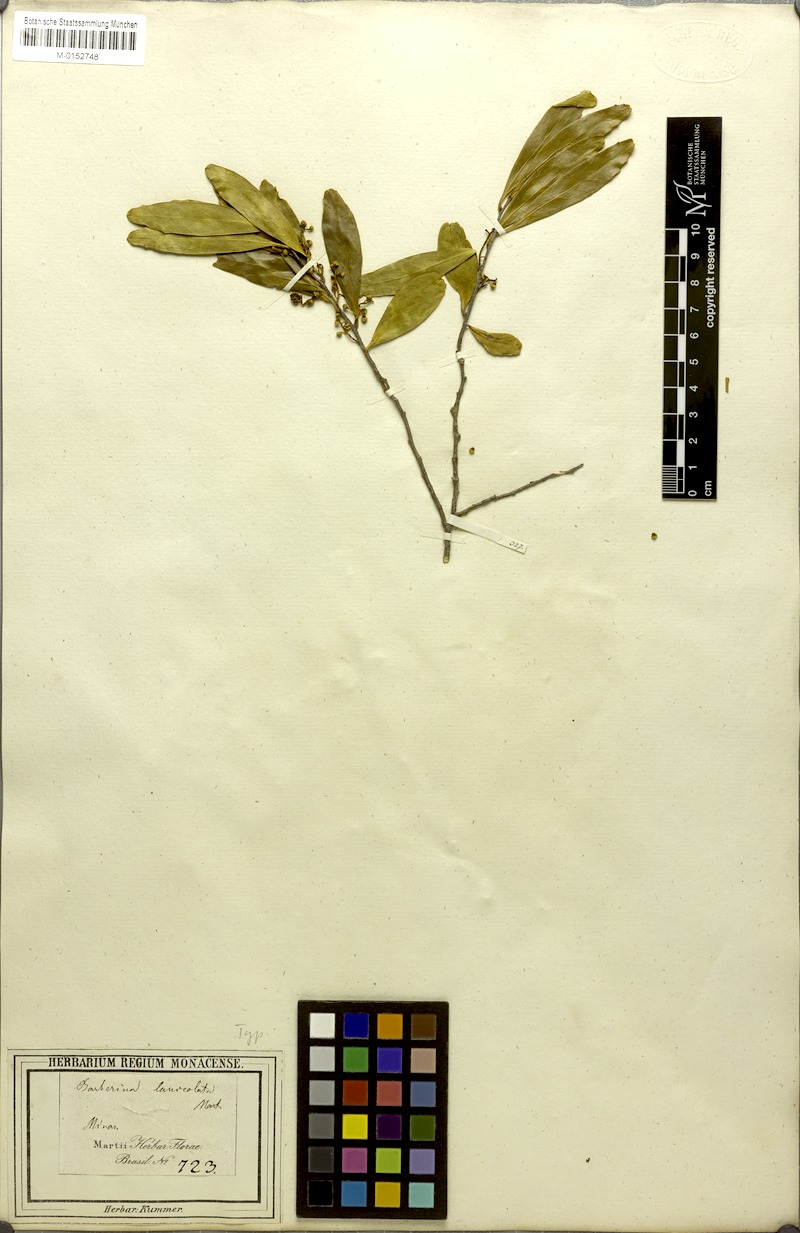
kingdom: Plantae
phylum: Tracheophyta
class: Magnoliopsida
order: Ericales
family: Symplocaceae
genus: Symplocos
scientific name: Symplocos oblongifolia
